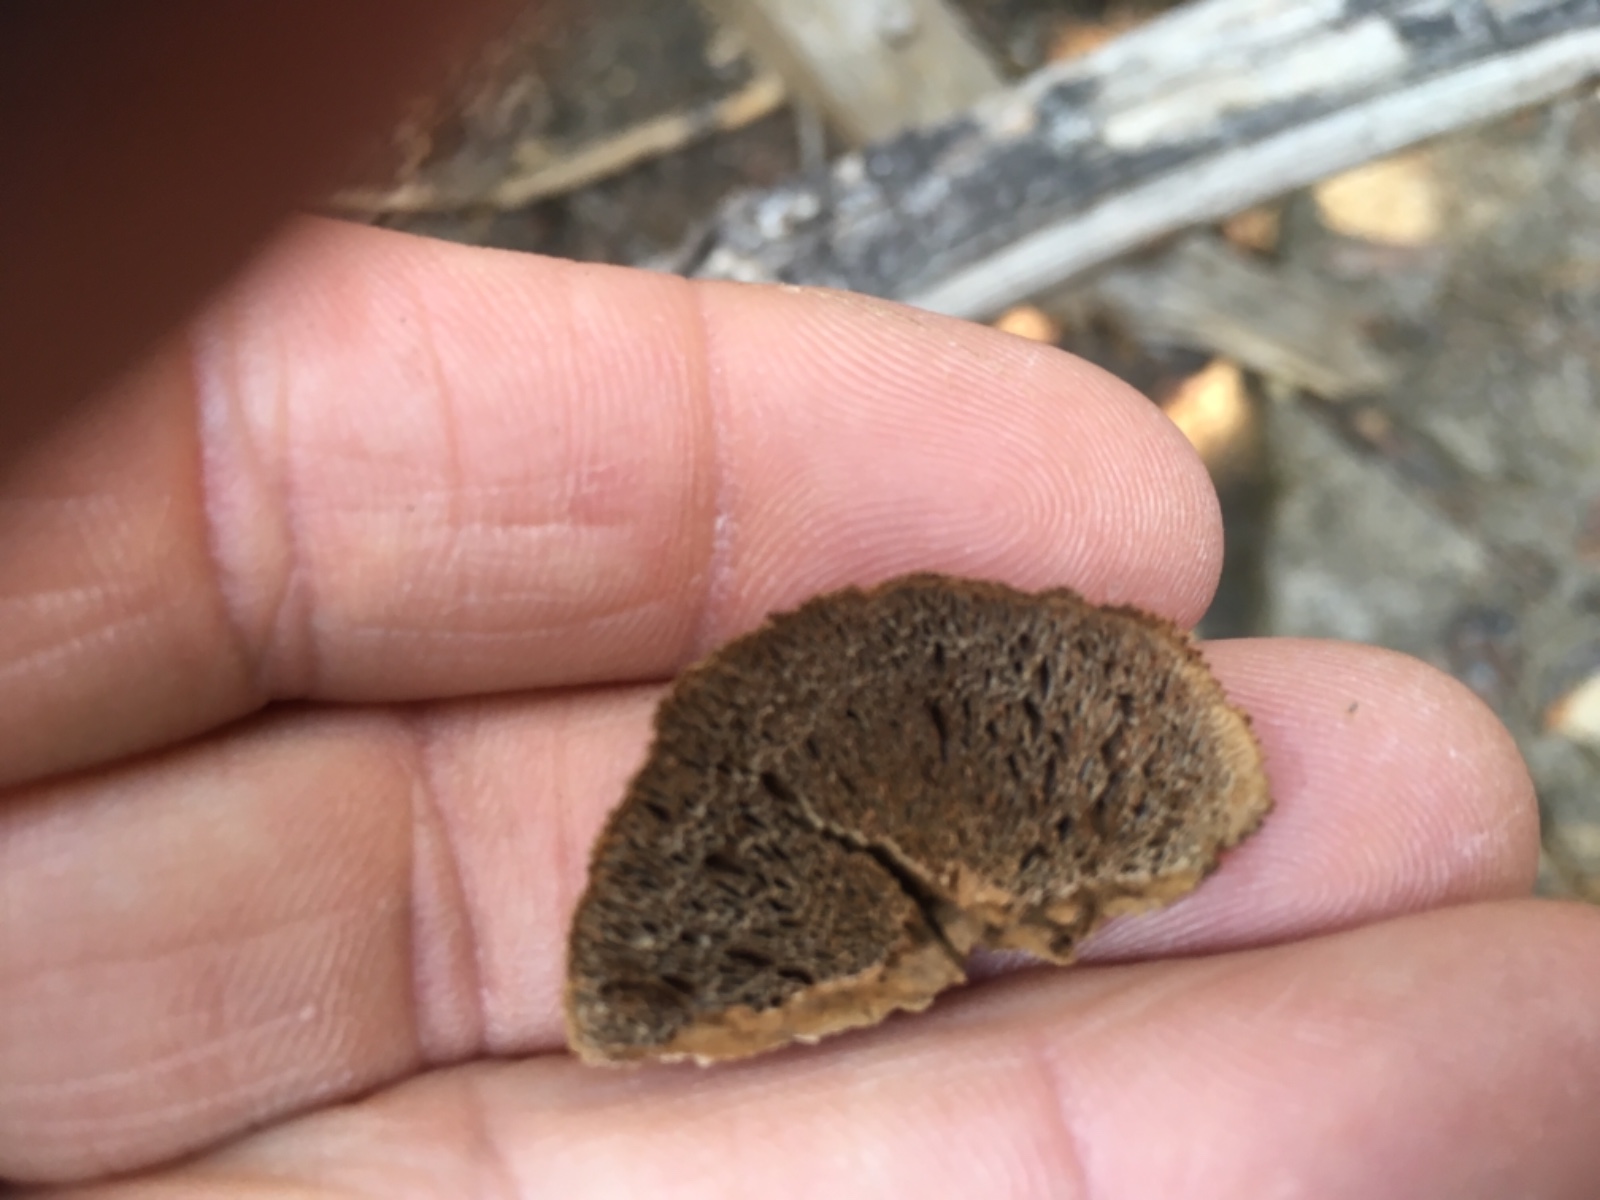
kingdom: Fungi
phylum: Basidiomycota
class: Agaricomycetes
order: Polyporales
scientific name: Polyporales
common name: poresvampordenen
